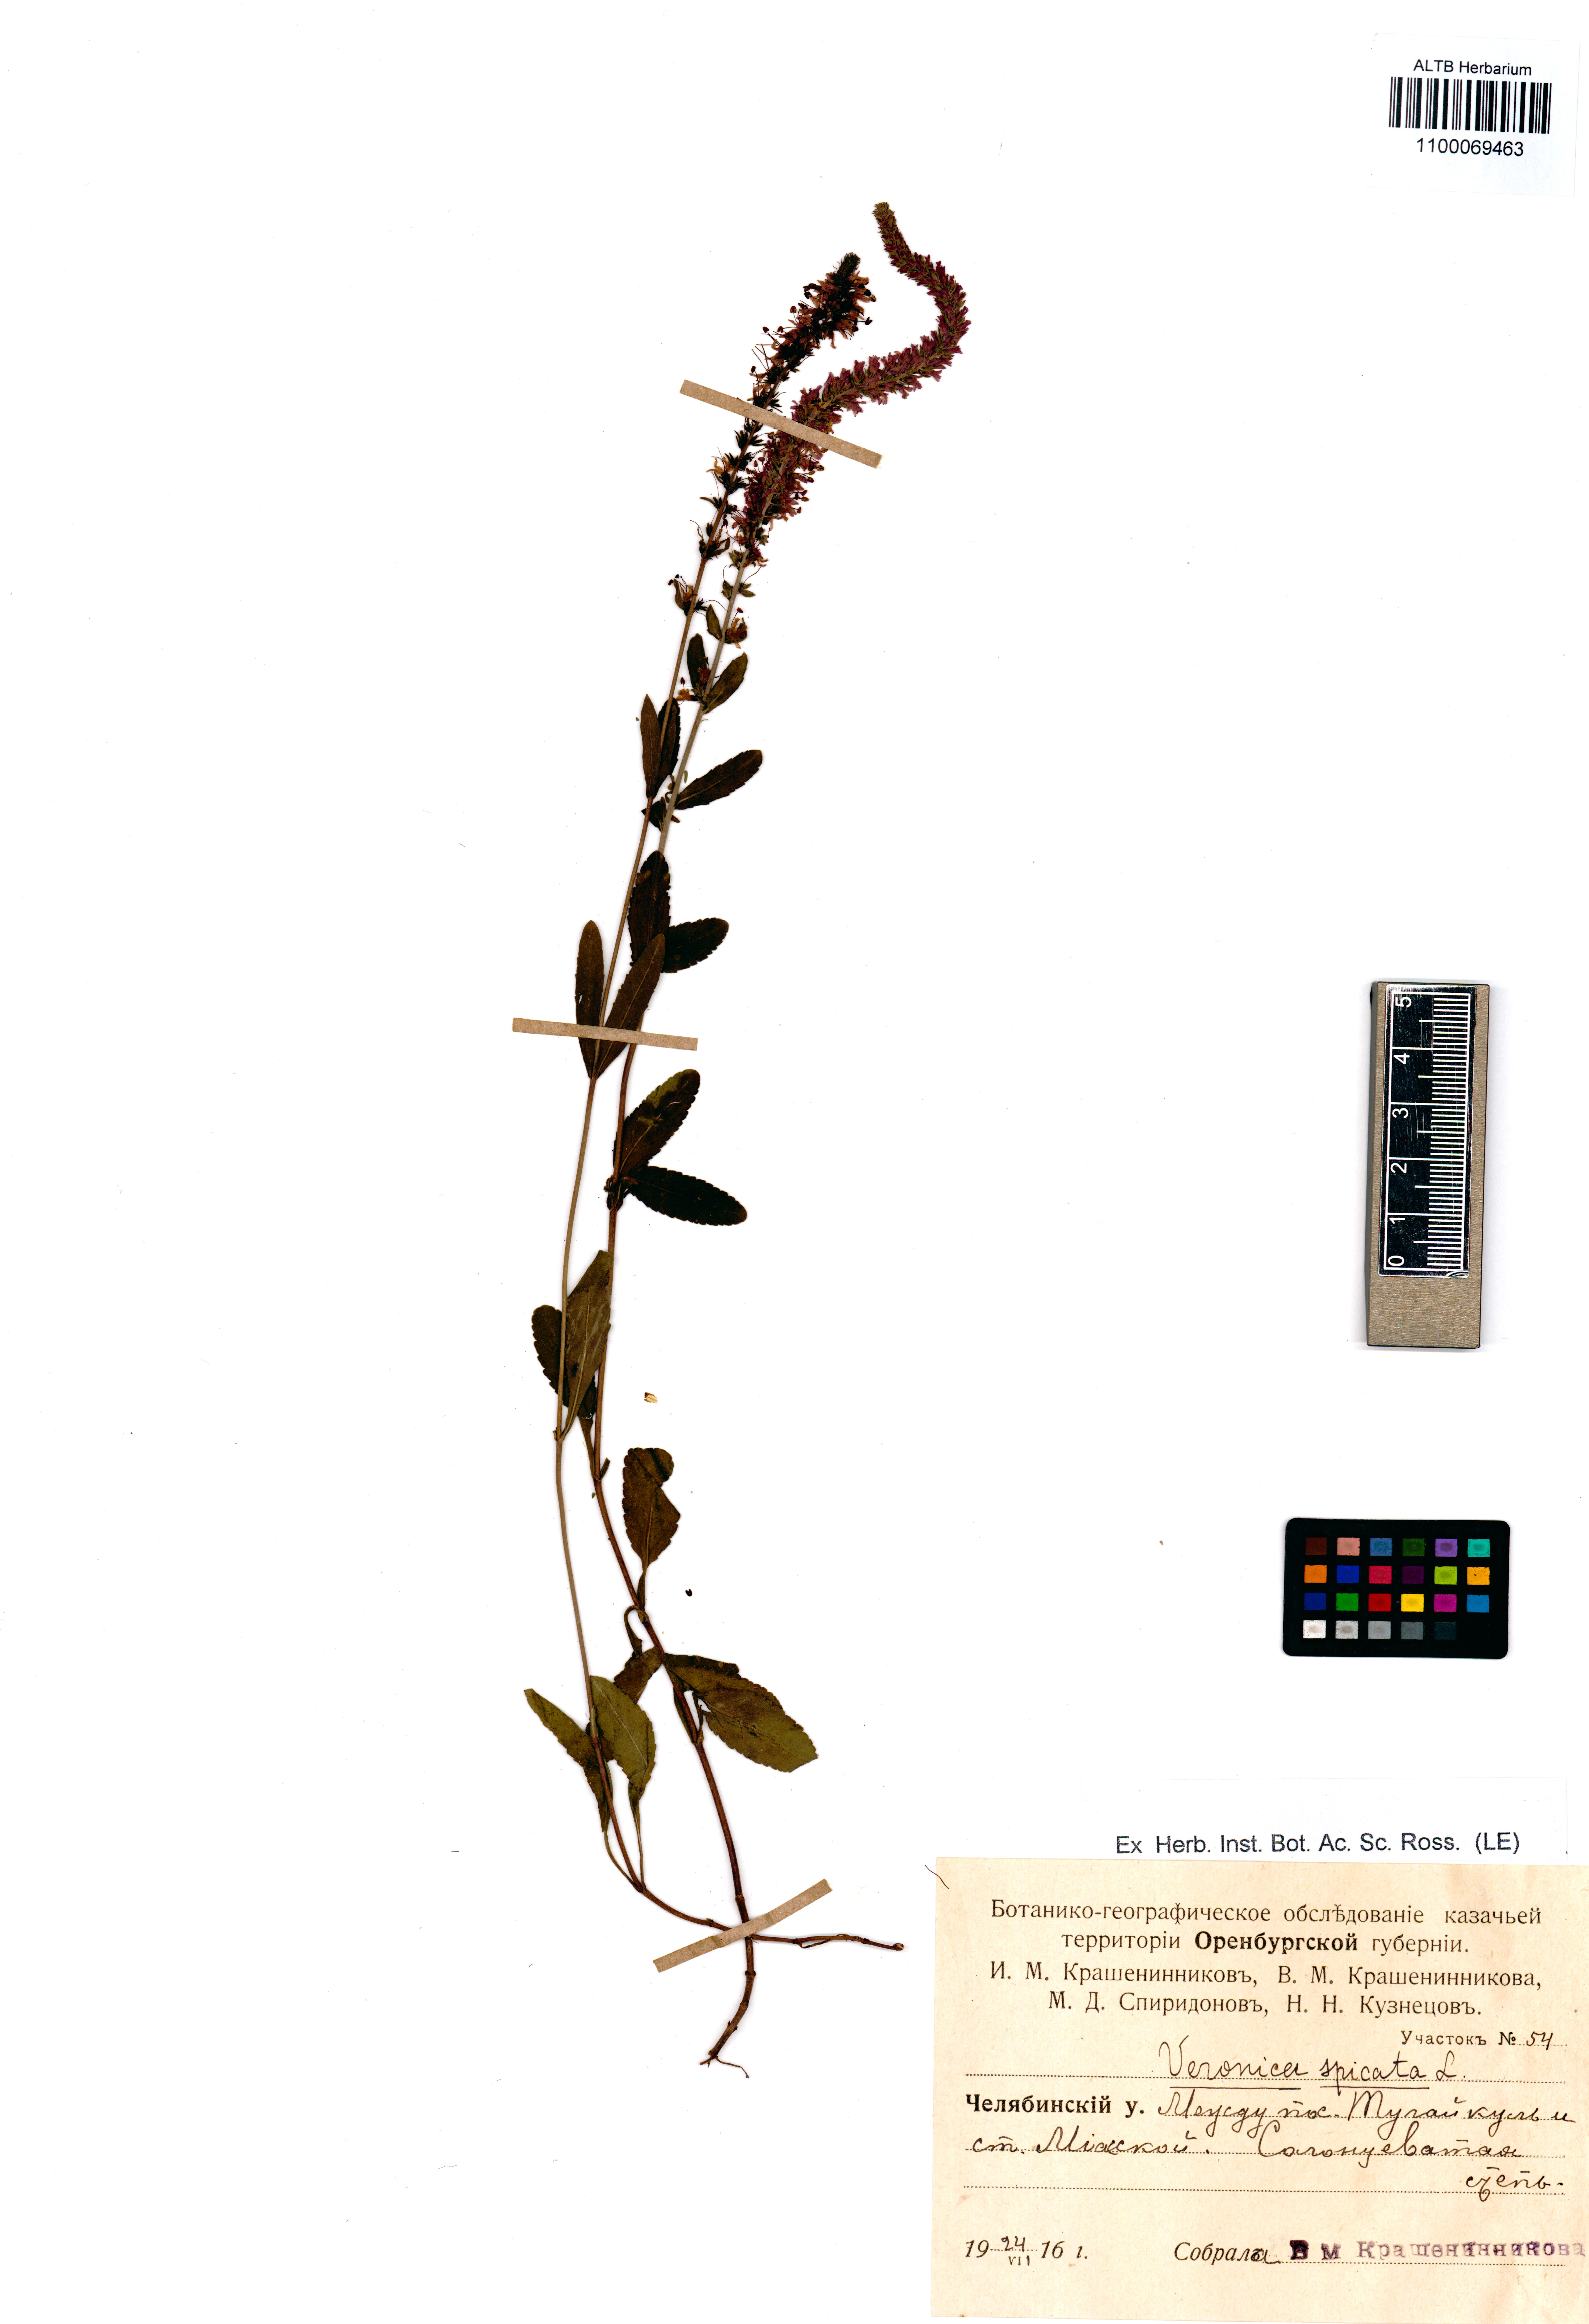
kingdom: Plantae
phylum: Tracheophyta
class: Magnoliopsida
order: Lamiales
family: Plantaginaceae
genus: Veronica
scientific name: Veronica spicata
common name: Spiked speedwell
